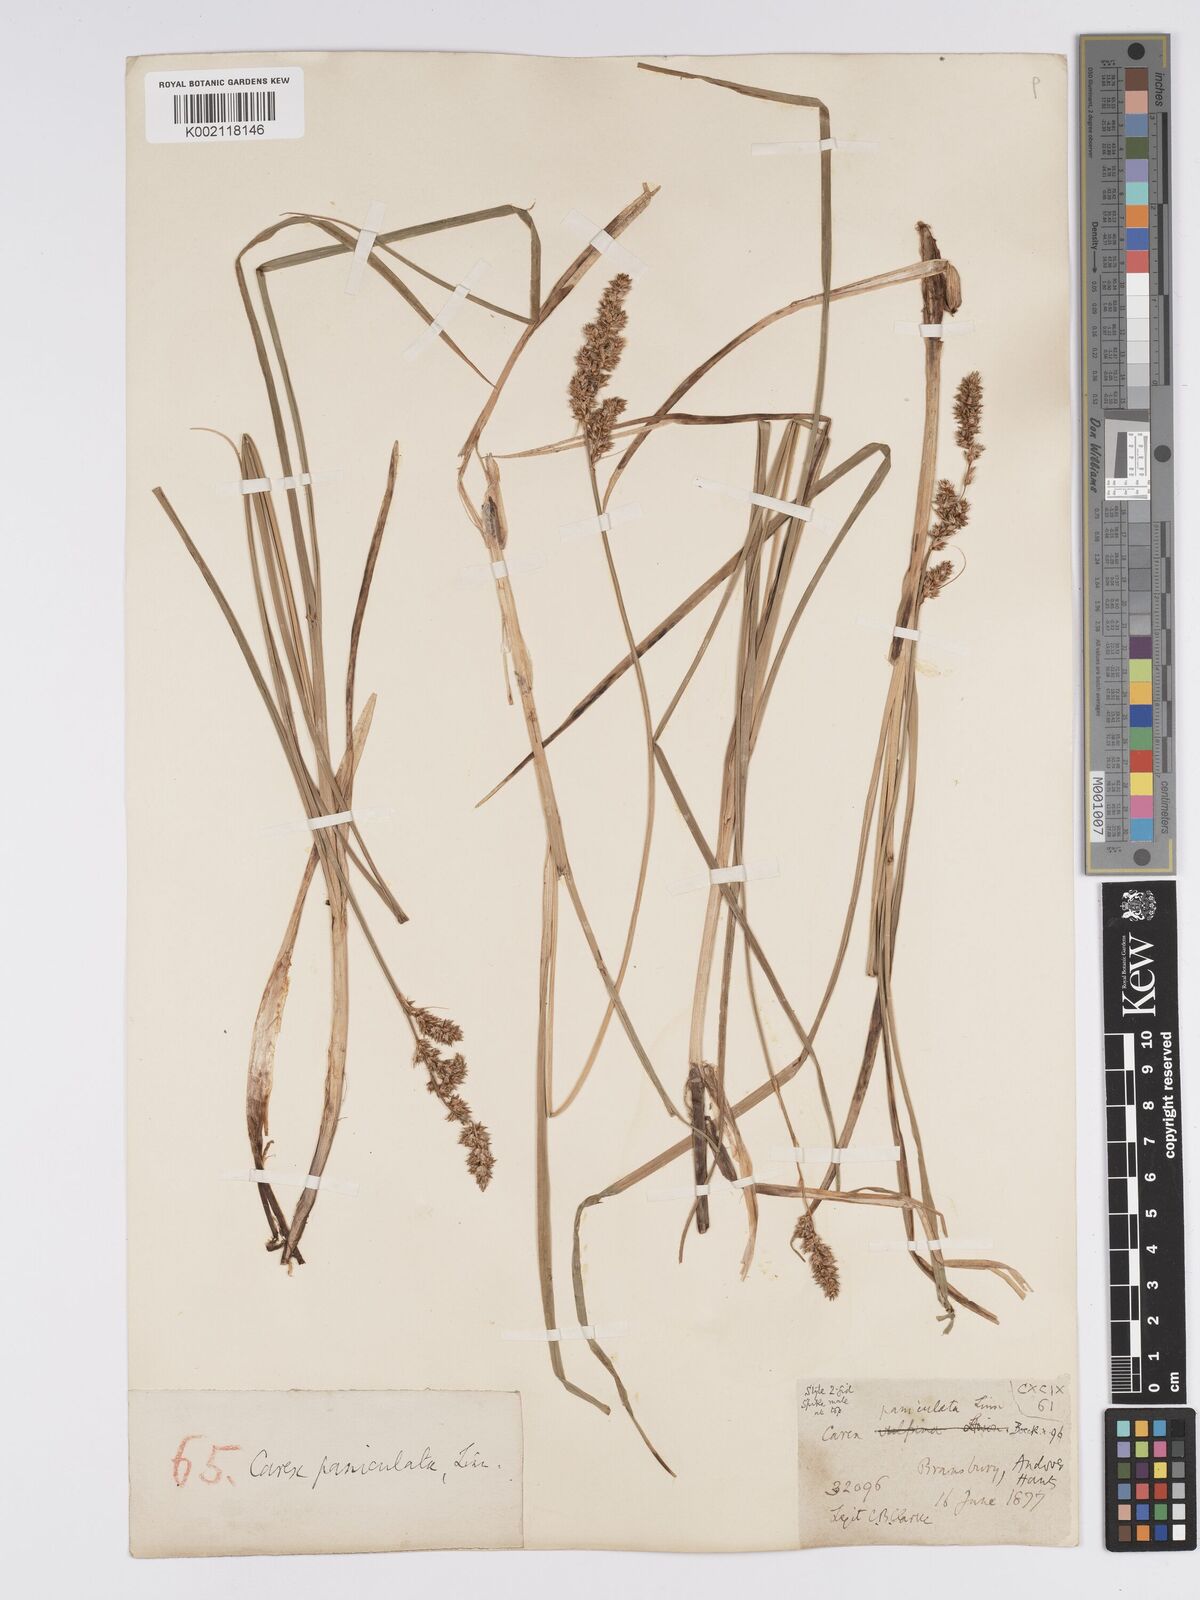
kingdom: Plantae
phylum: Tracheophyta
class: Liliopsida
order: Poales
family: Cyperaceae
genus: Carex
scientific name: Carex paniculata
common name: Greater tussock-sedge
